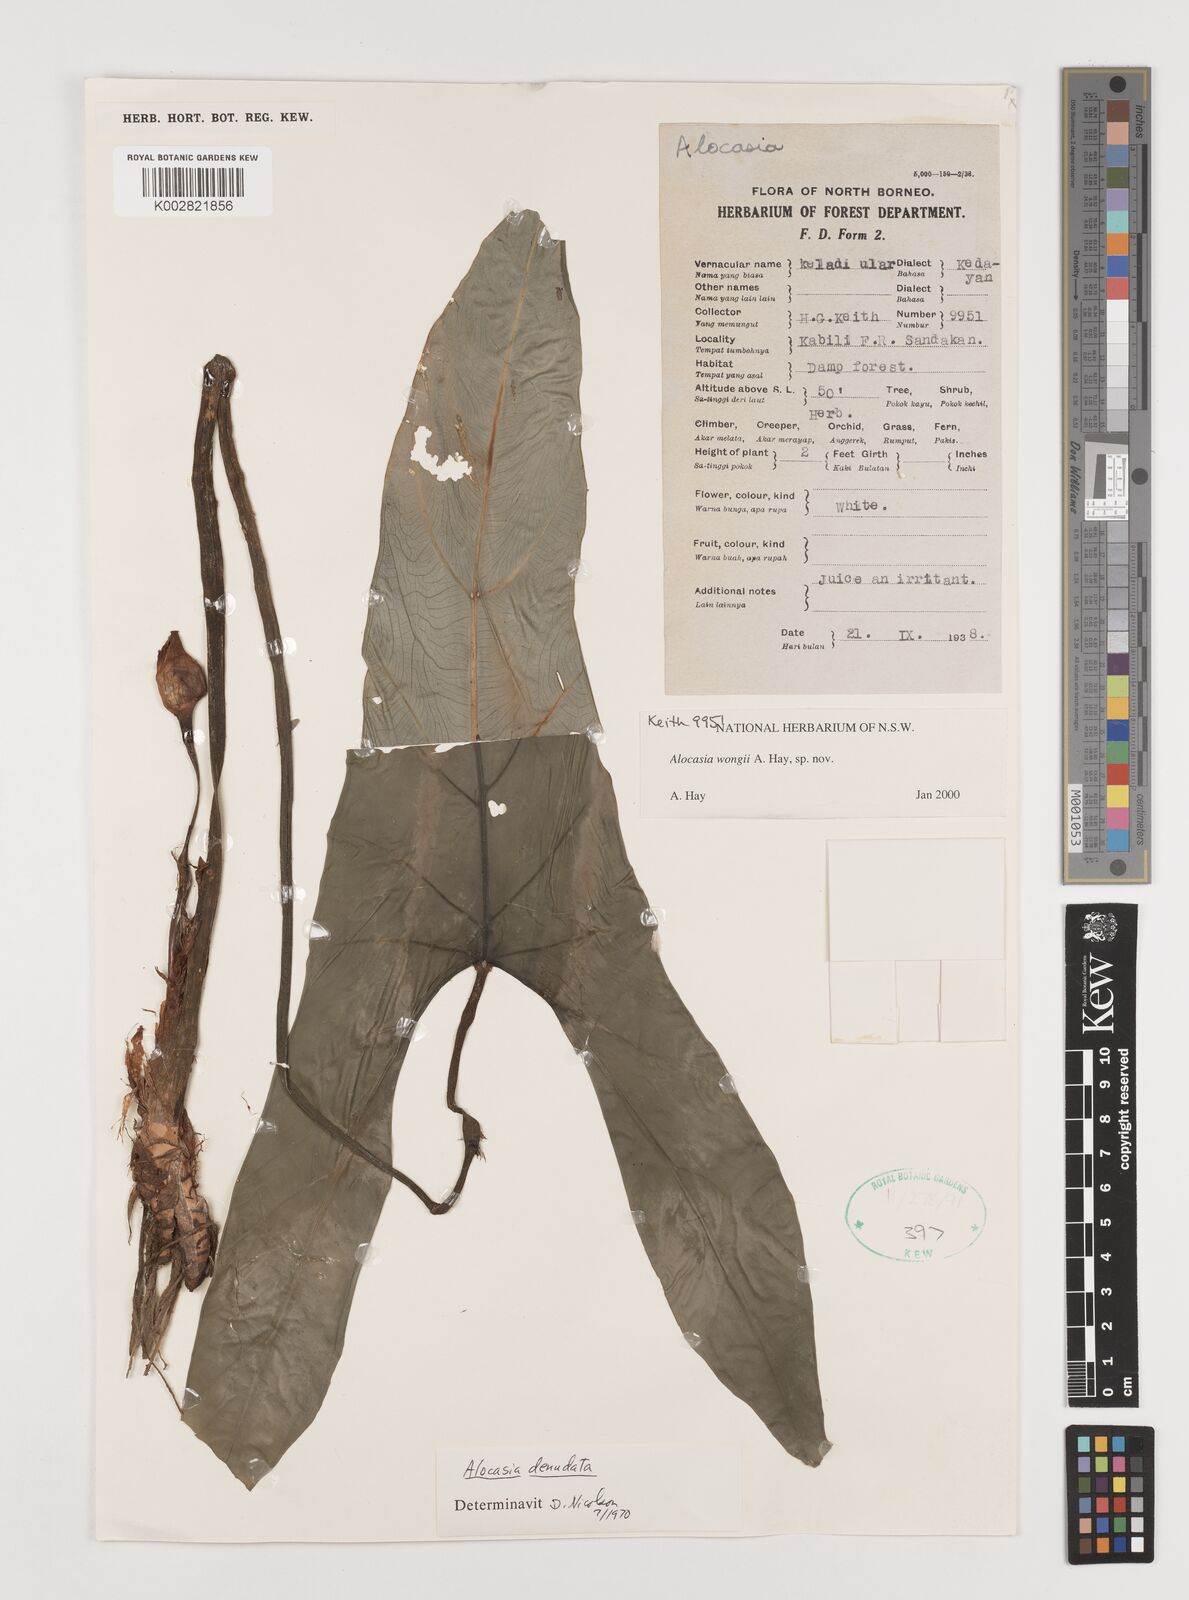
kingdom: Plantae
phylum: Tracheophyta
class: Liliopsida
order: Alismatales
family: Araceae
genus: Alocasia
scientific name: Alocasia wongii
